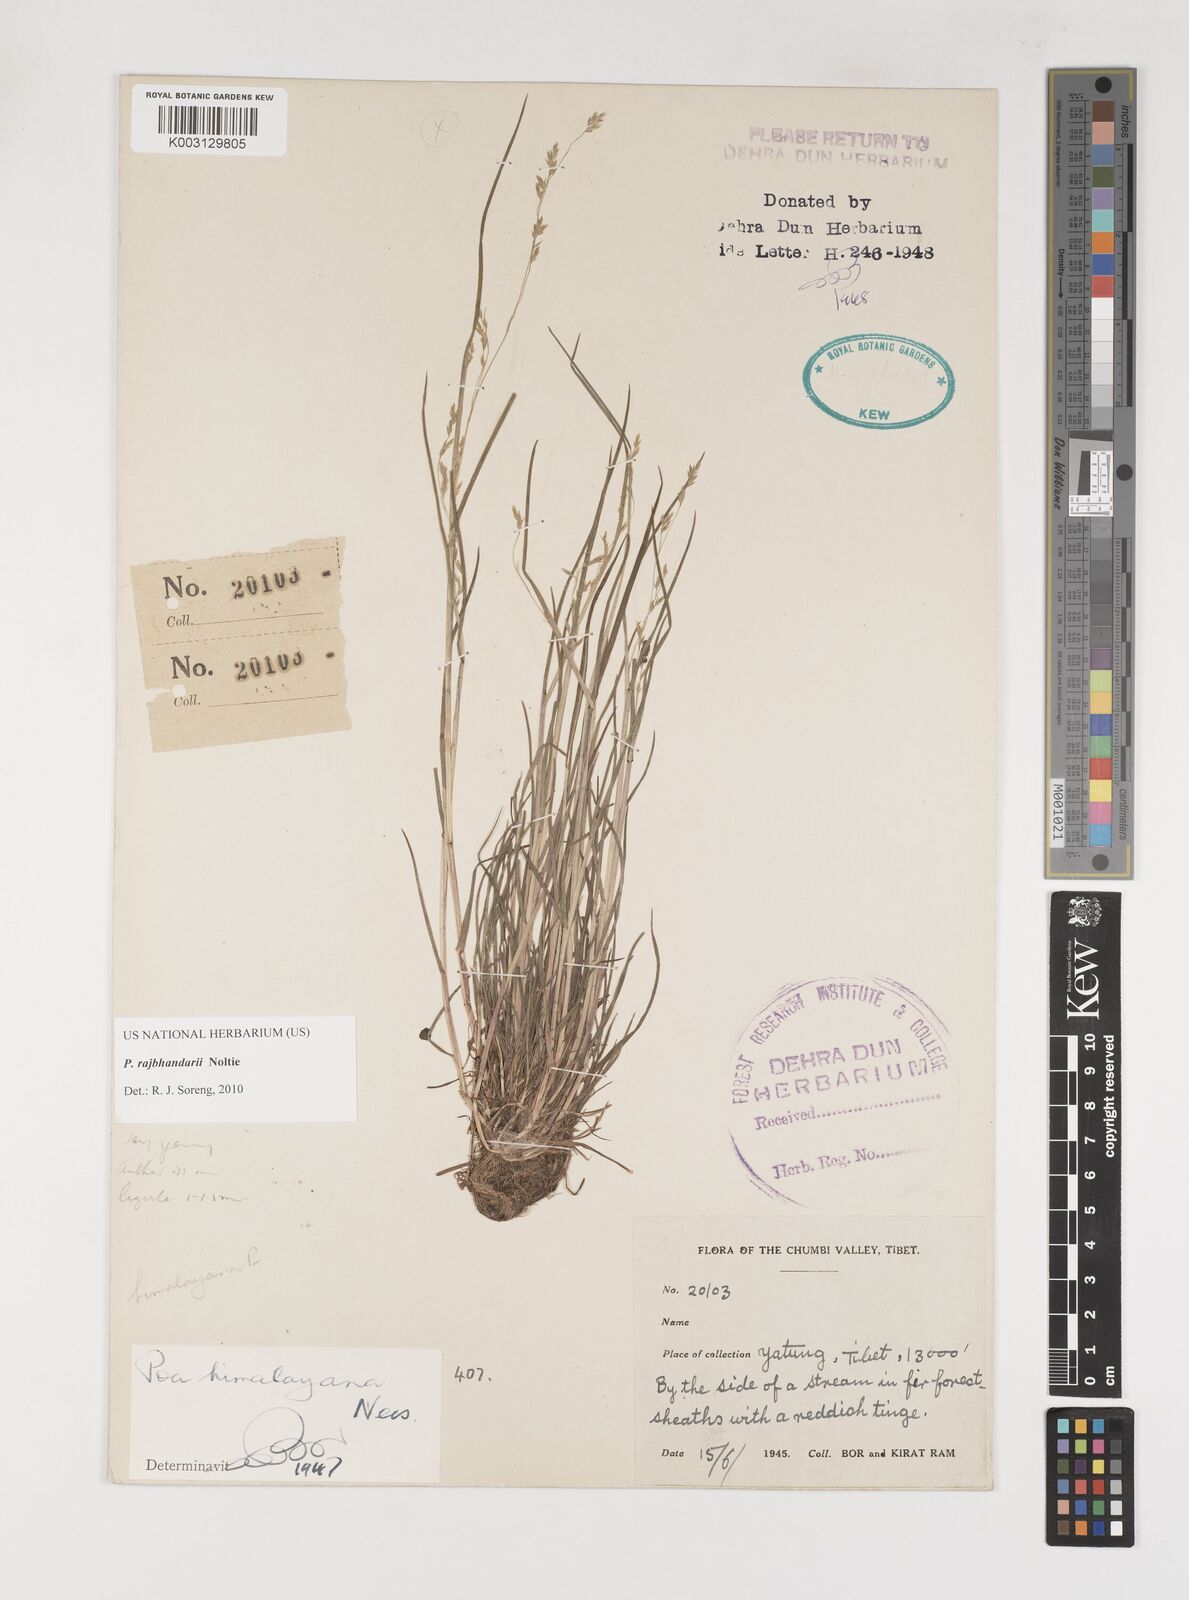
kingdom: Plantae
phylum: Tracheophyta
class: Liliopsida
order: Poales
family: Poaceae
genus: Poa
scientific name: Poa rajbhandarii
